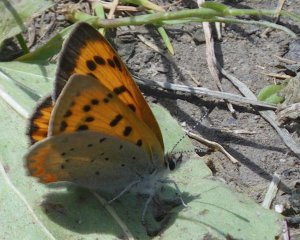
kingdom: Animalia
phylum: Arthropoda
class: Insecta
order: Lepidoptera
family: Sesiidae
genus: Sesia
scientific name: Sesia Lycaena helloides
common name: Purplish Copper
